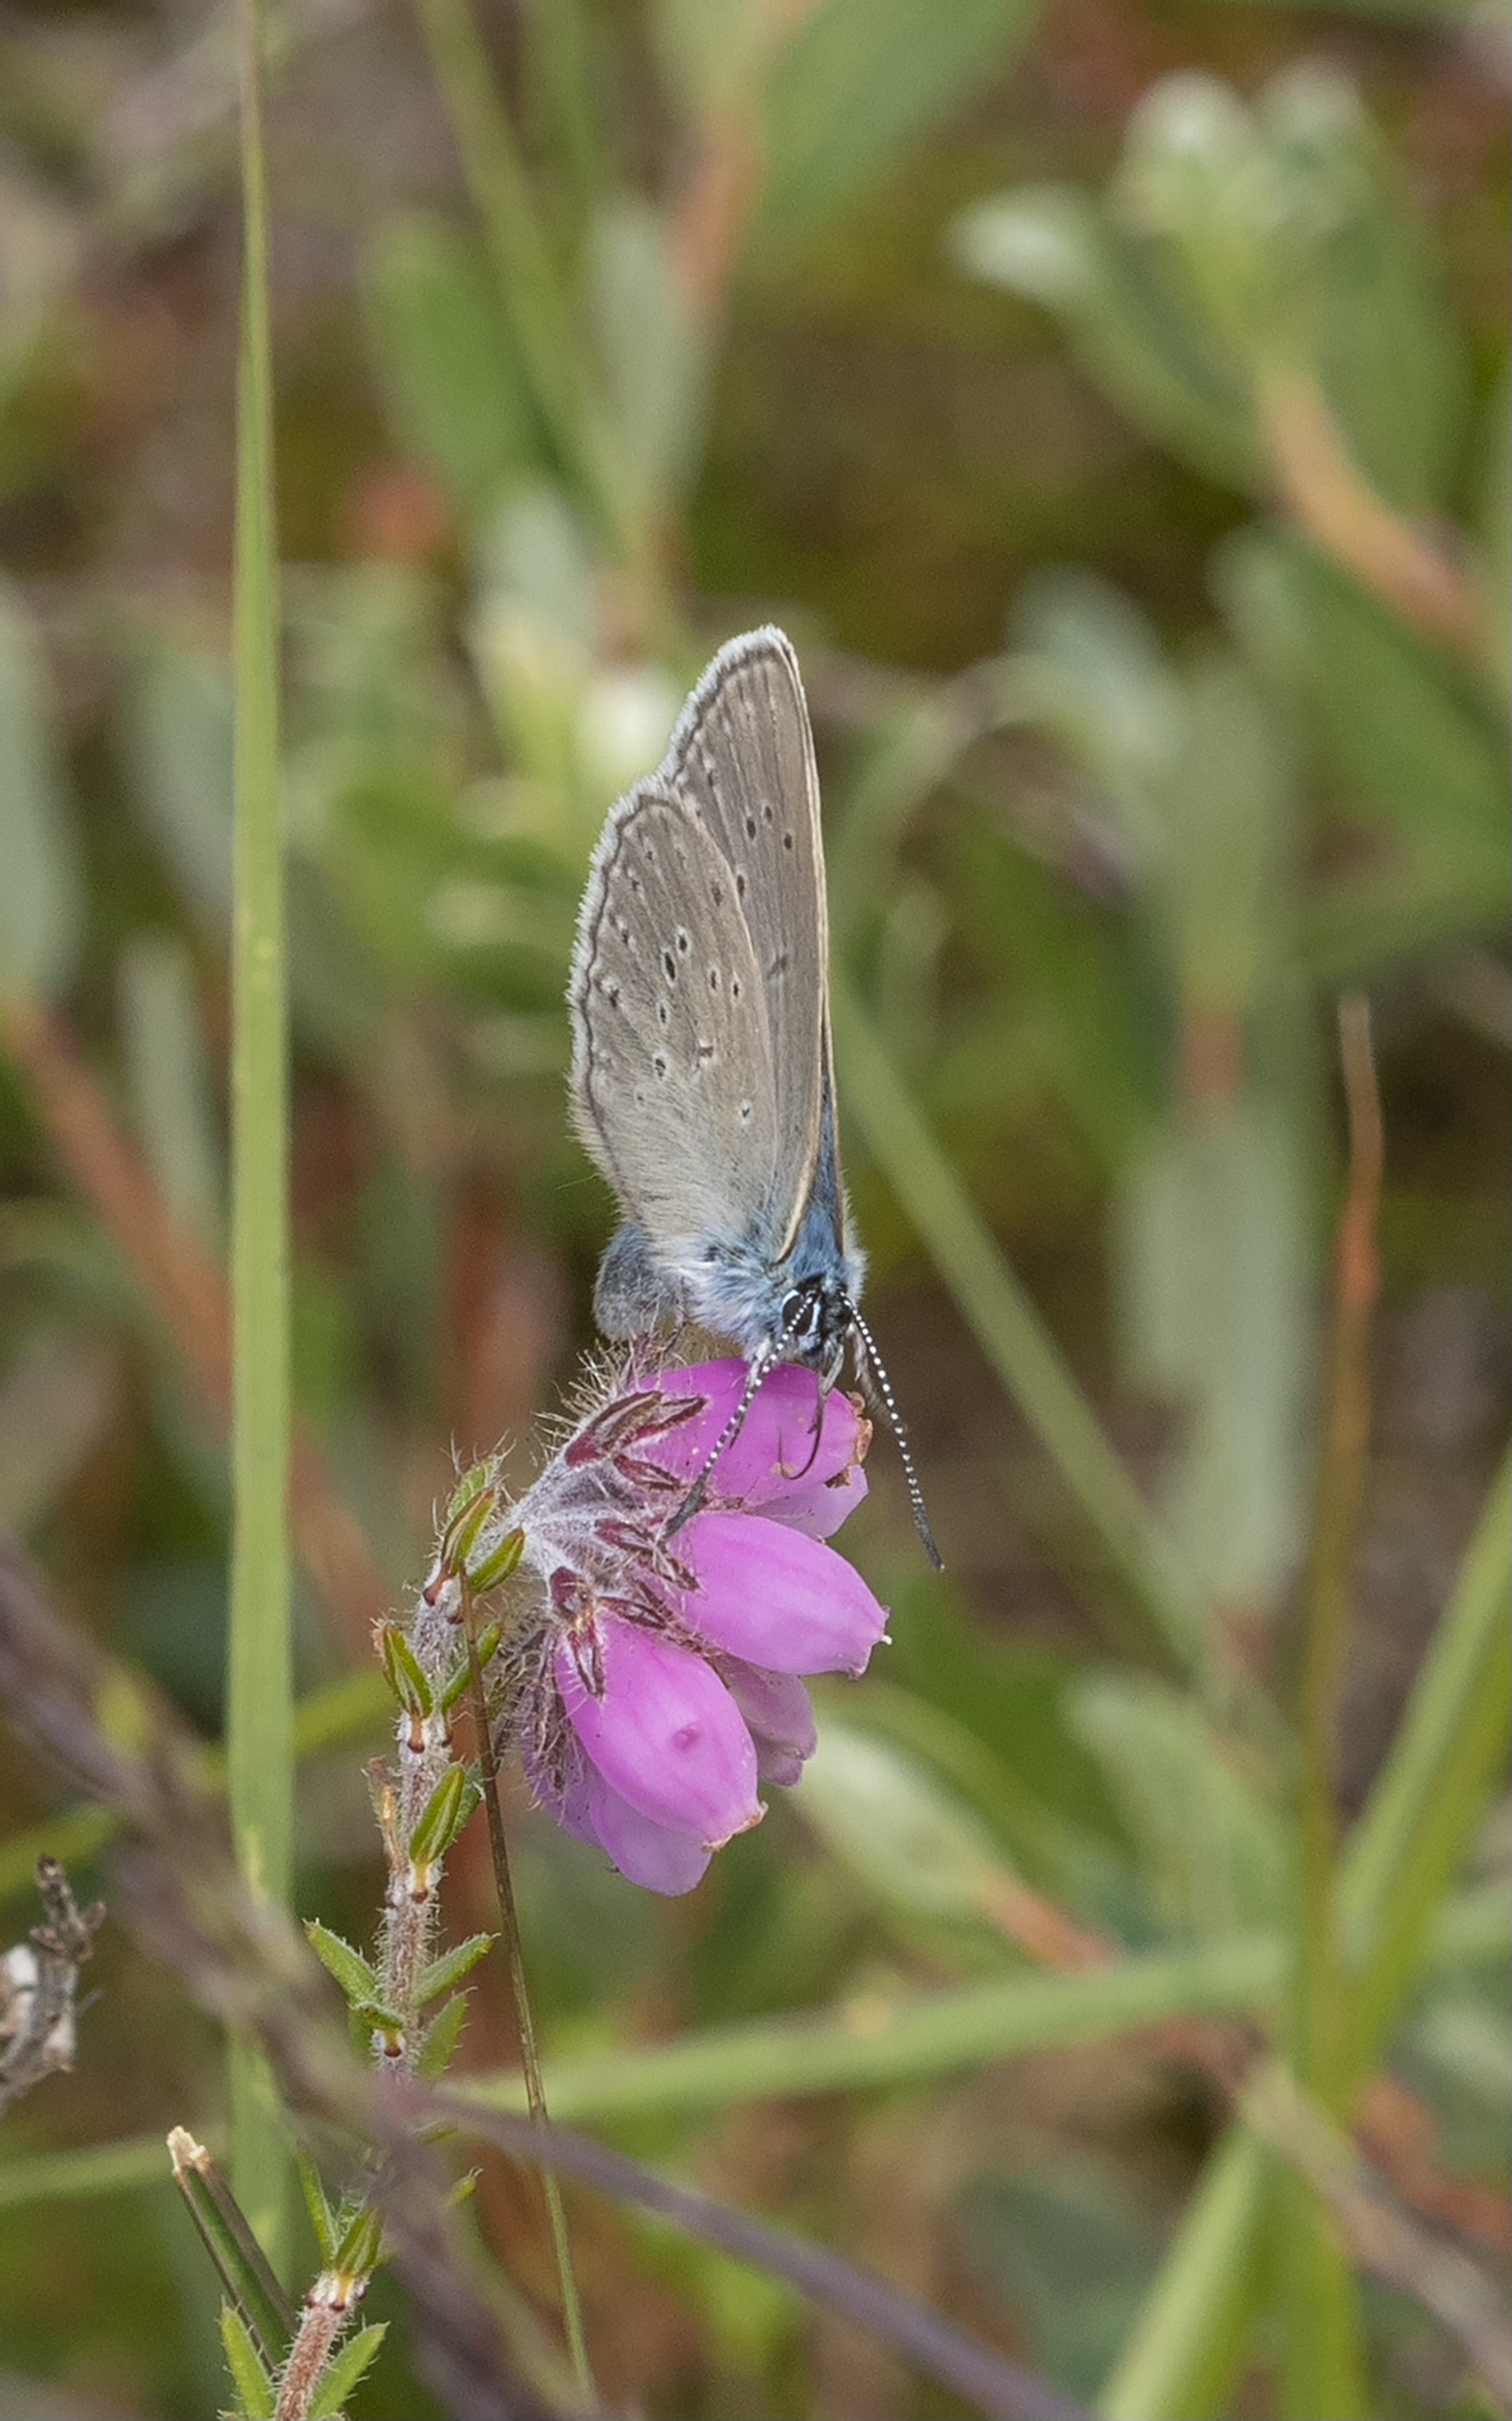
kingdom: Animalia
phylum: Arthropoda
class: Insecta
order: Lepidoptera
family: Lycaenidae
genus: Maculinea
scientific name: Maculinea alcon
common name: Ensianblåfugl
